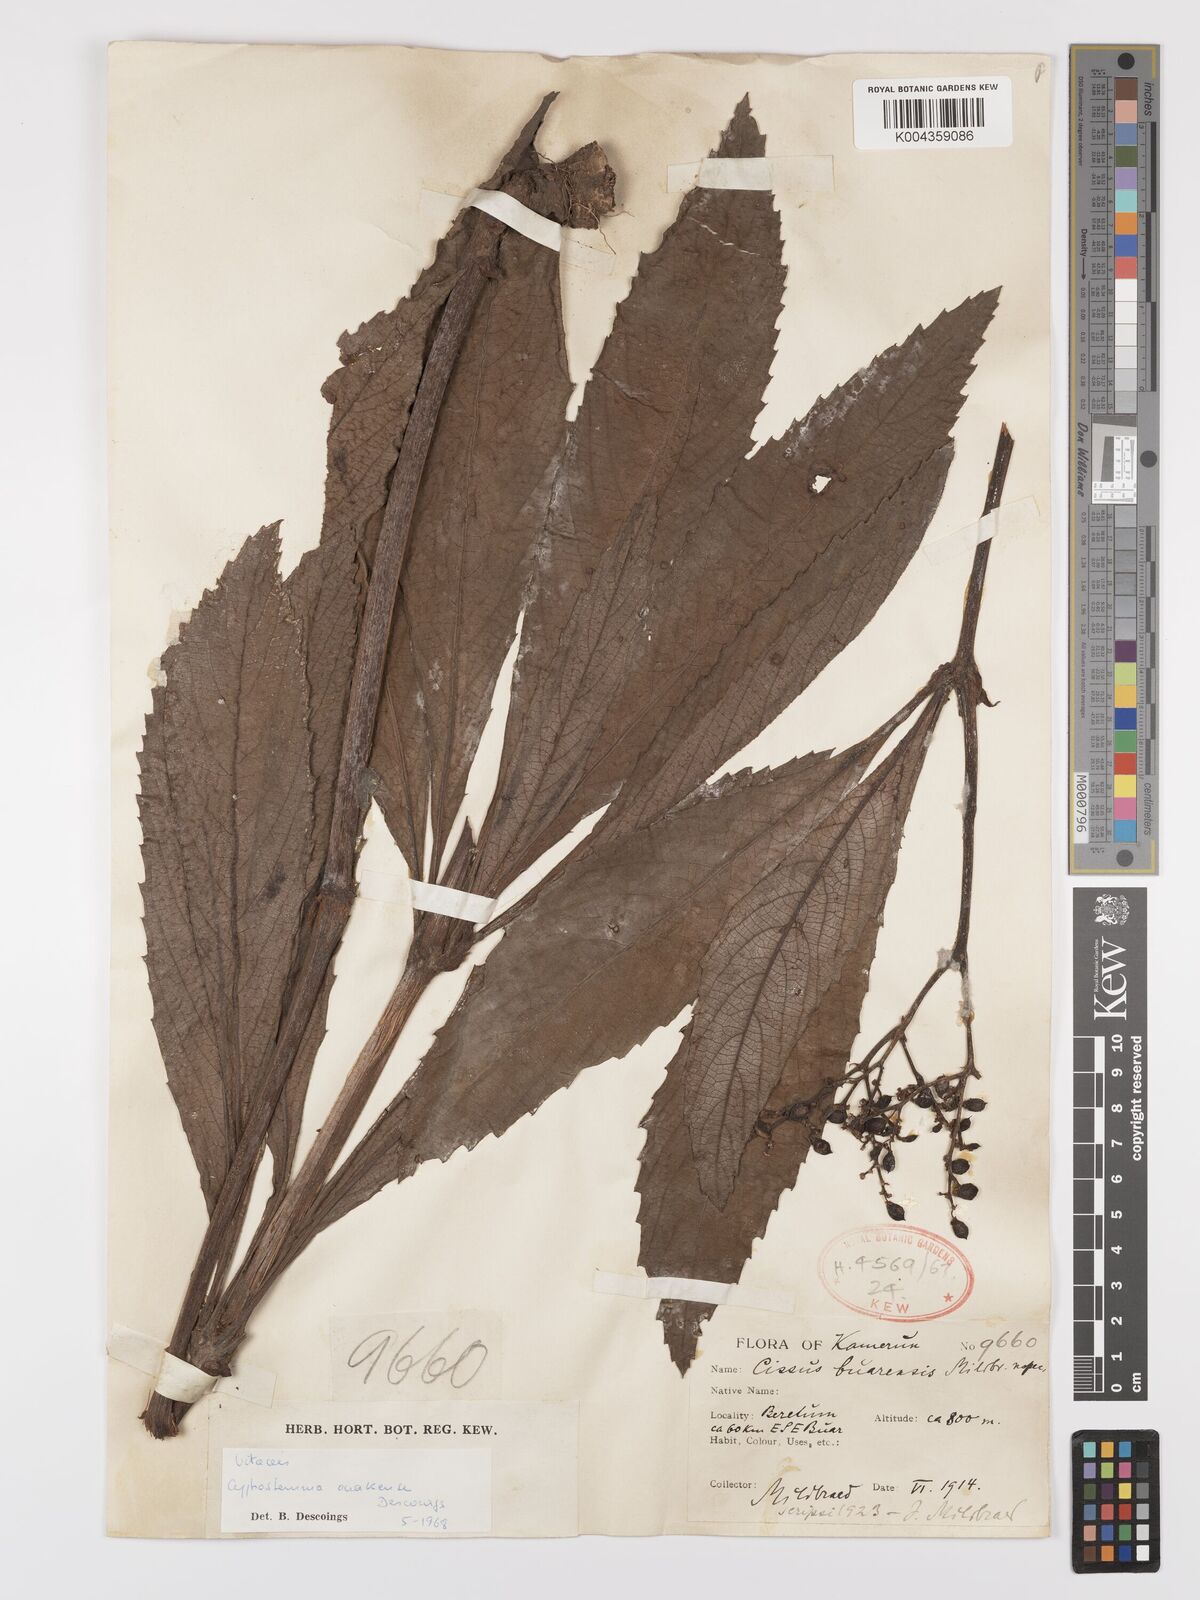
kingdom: Plantae
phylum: Tracheophyta
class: Magnoliopsida
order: Vitales
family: Vitaceae
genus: Cyphostemma
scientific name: Cyphostemma ouakense
